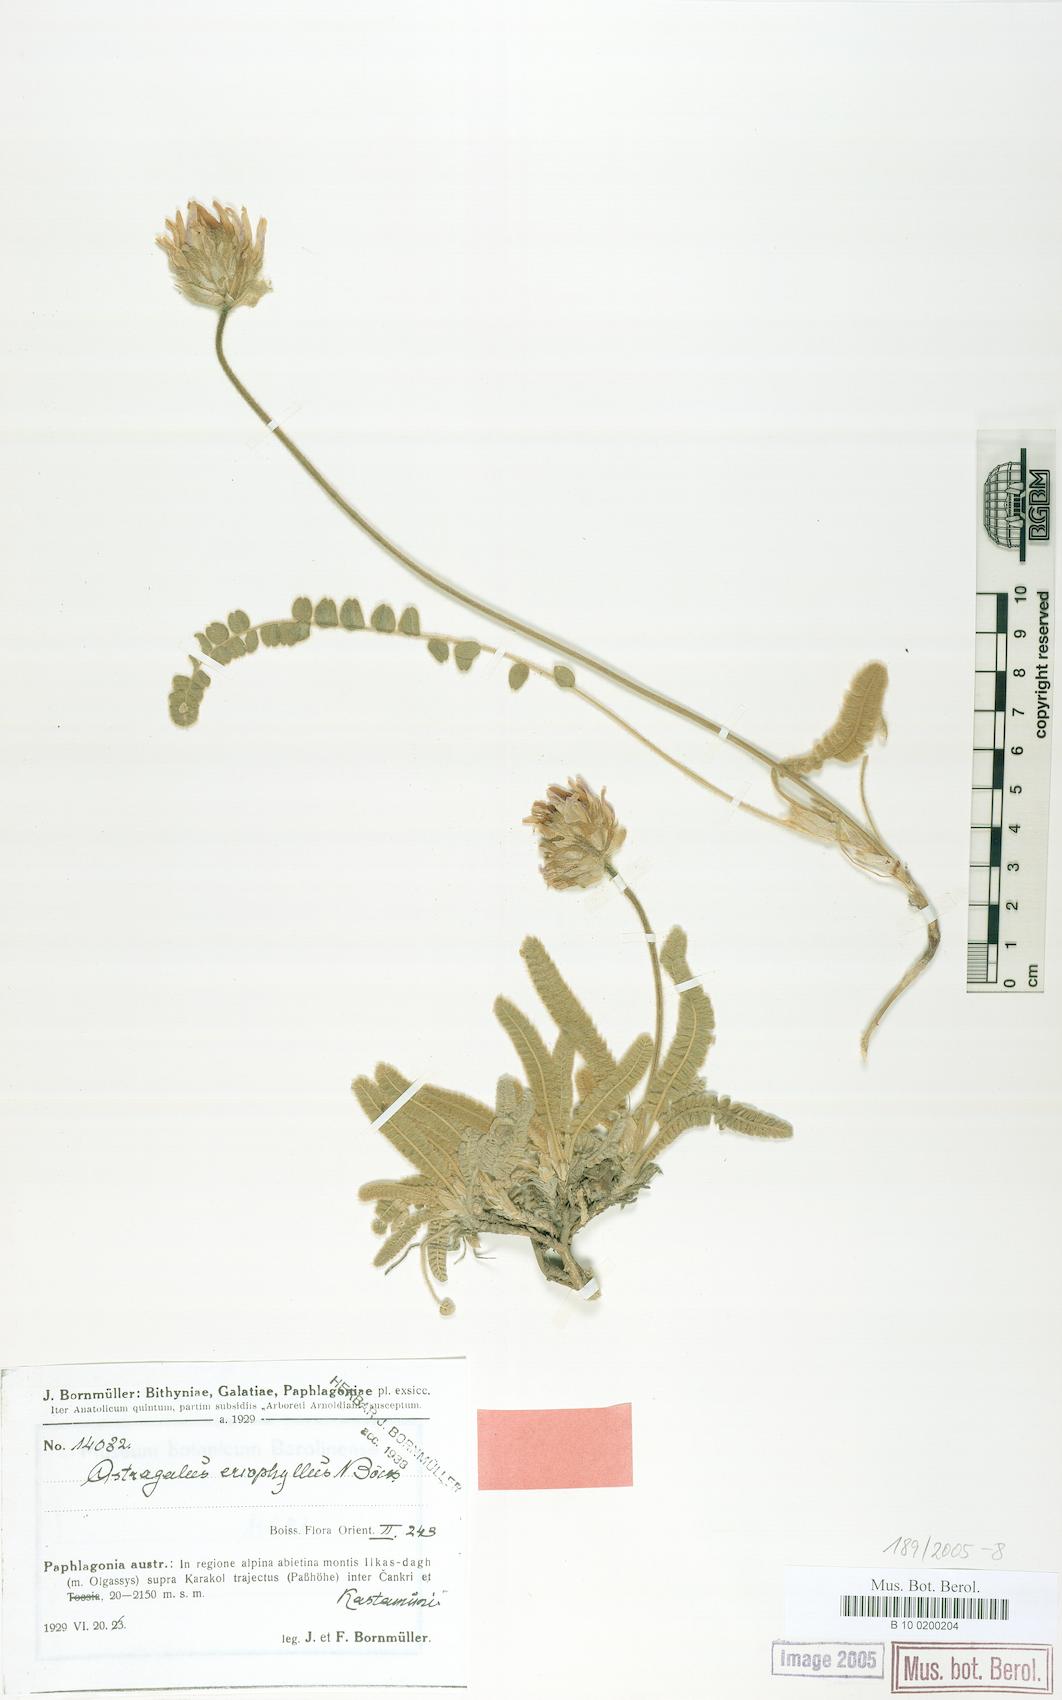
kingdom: Plantae
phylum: Tracheophyta
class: Magnoliopsida
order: Fabales
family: Fabaceae
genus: Astragalus
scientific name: Astragalus densifolius
